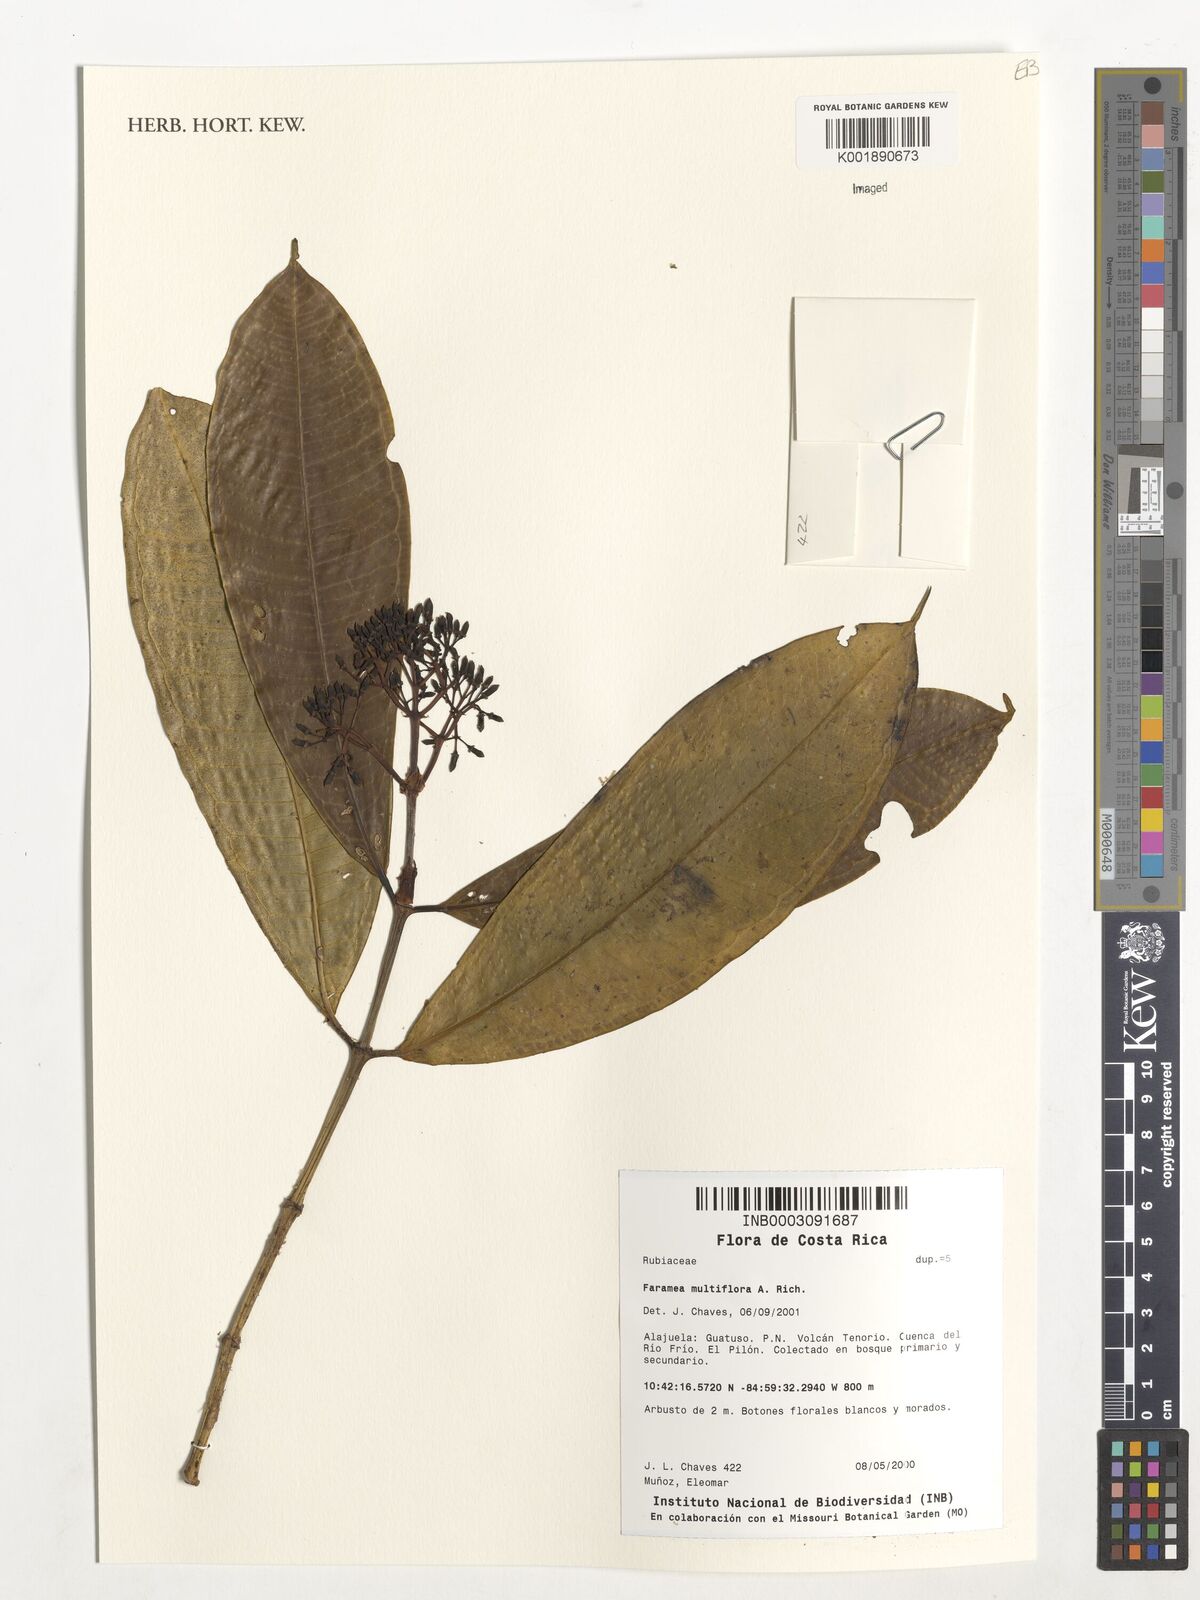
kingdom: Plantae
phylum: Tracheophyta
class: Magnoliopsida
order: Gentianales
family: Rubiaceae
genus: Faramea
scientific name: Faramea multiflora
